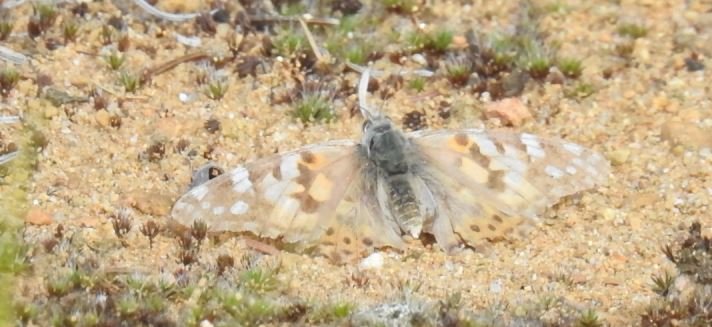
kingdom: Animalia
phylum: Arthropoda
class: Insecta
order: Lepidoptera
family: Nymphalidae
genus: Vanessa
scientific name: Vanessa cardui
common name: Painted Lady
